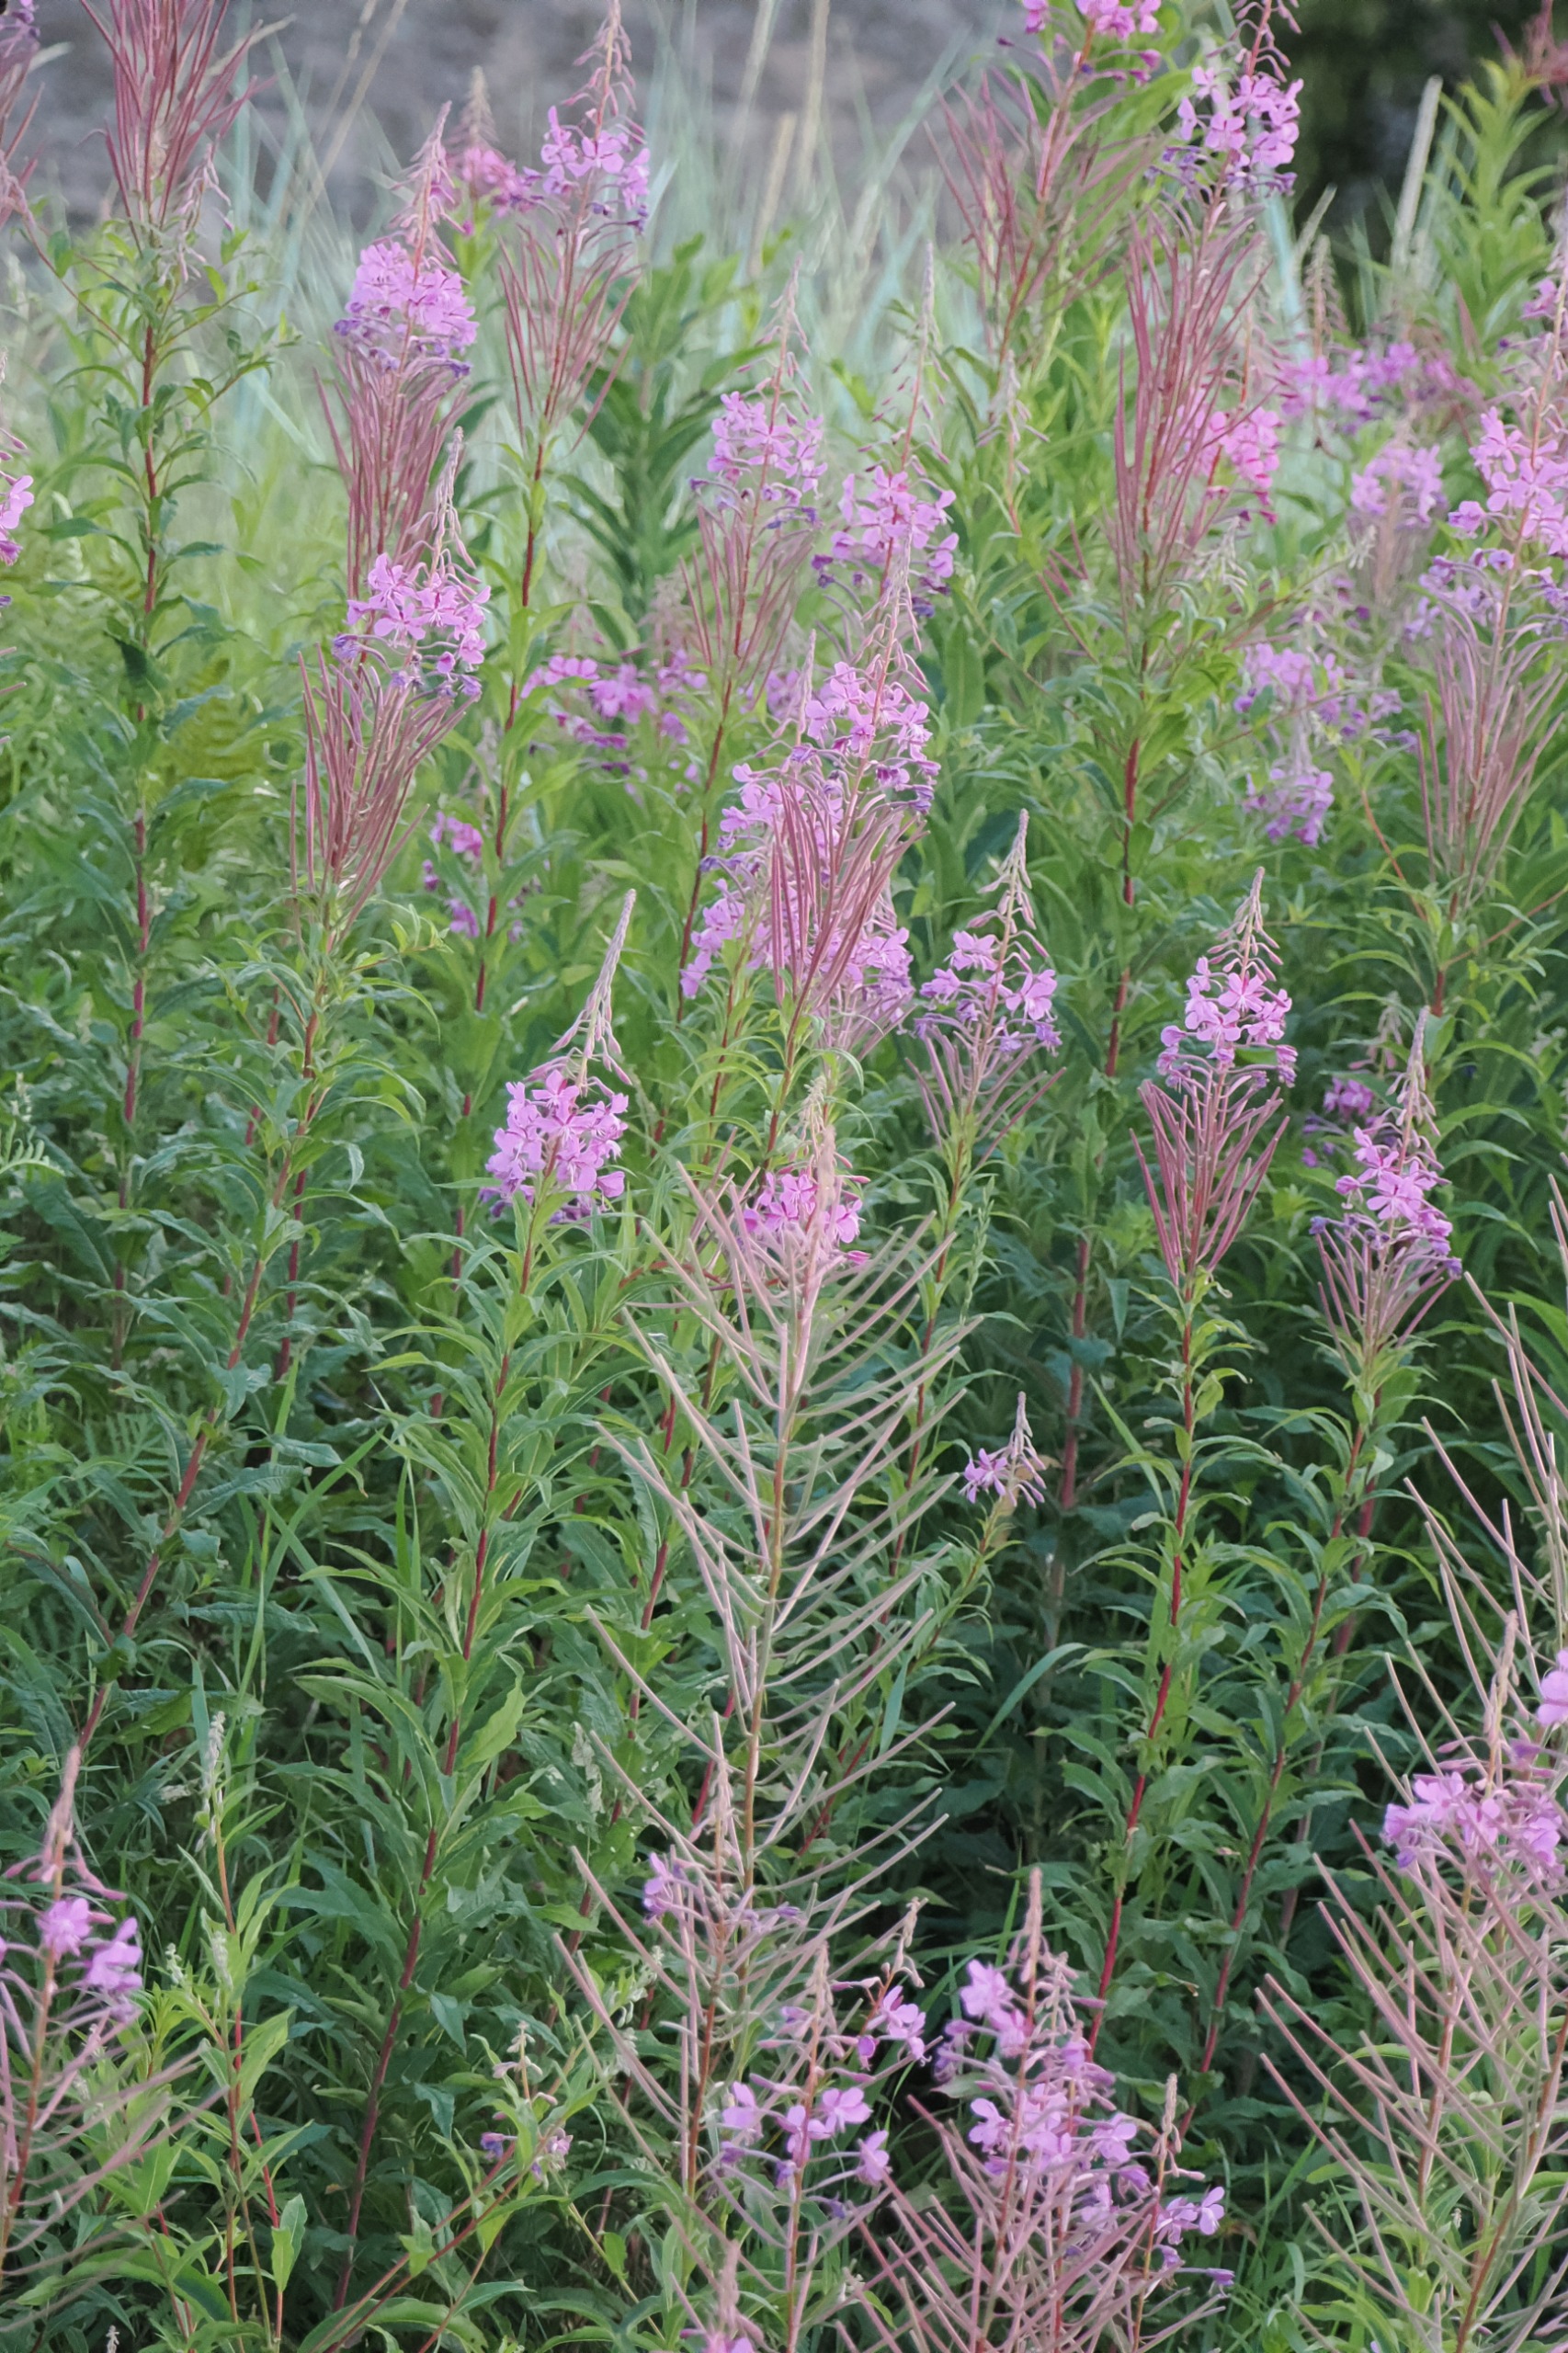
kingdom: Plantae
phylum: Tracheophyta
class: Magnoliopsida
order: Myrtales
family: Onagraceae
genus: Chamaenerion
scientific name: Chamaenerion angustifolium
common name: Gederams
